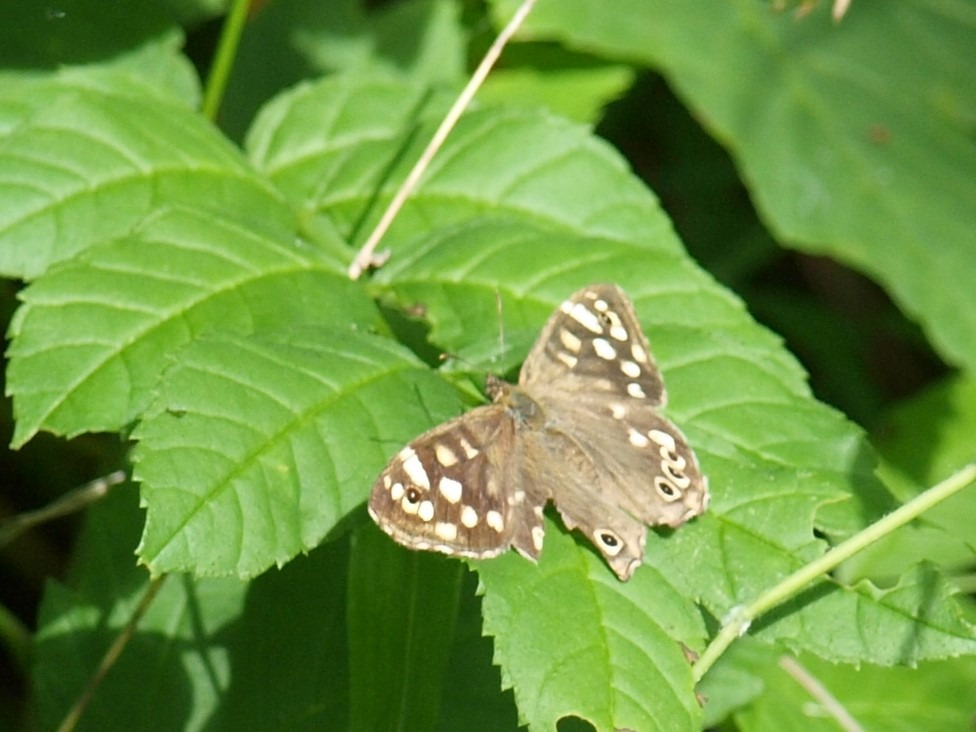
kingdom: Animalia
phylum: Arthropoda
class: Insecta
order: Lepidoptera
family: Nymphalidae
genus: Pararge
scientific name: Pararge aegeria
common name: Skovrandøje
